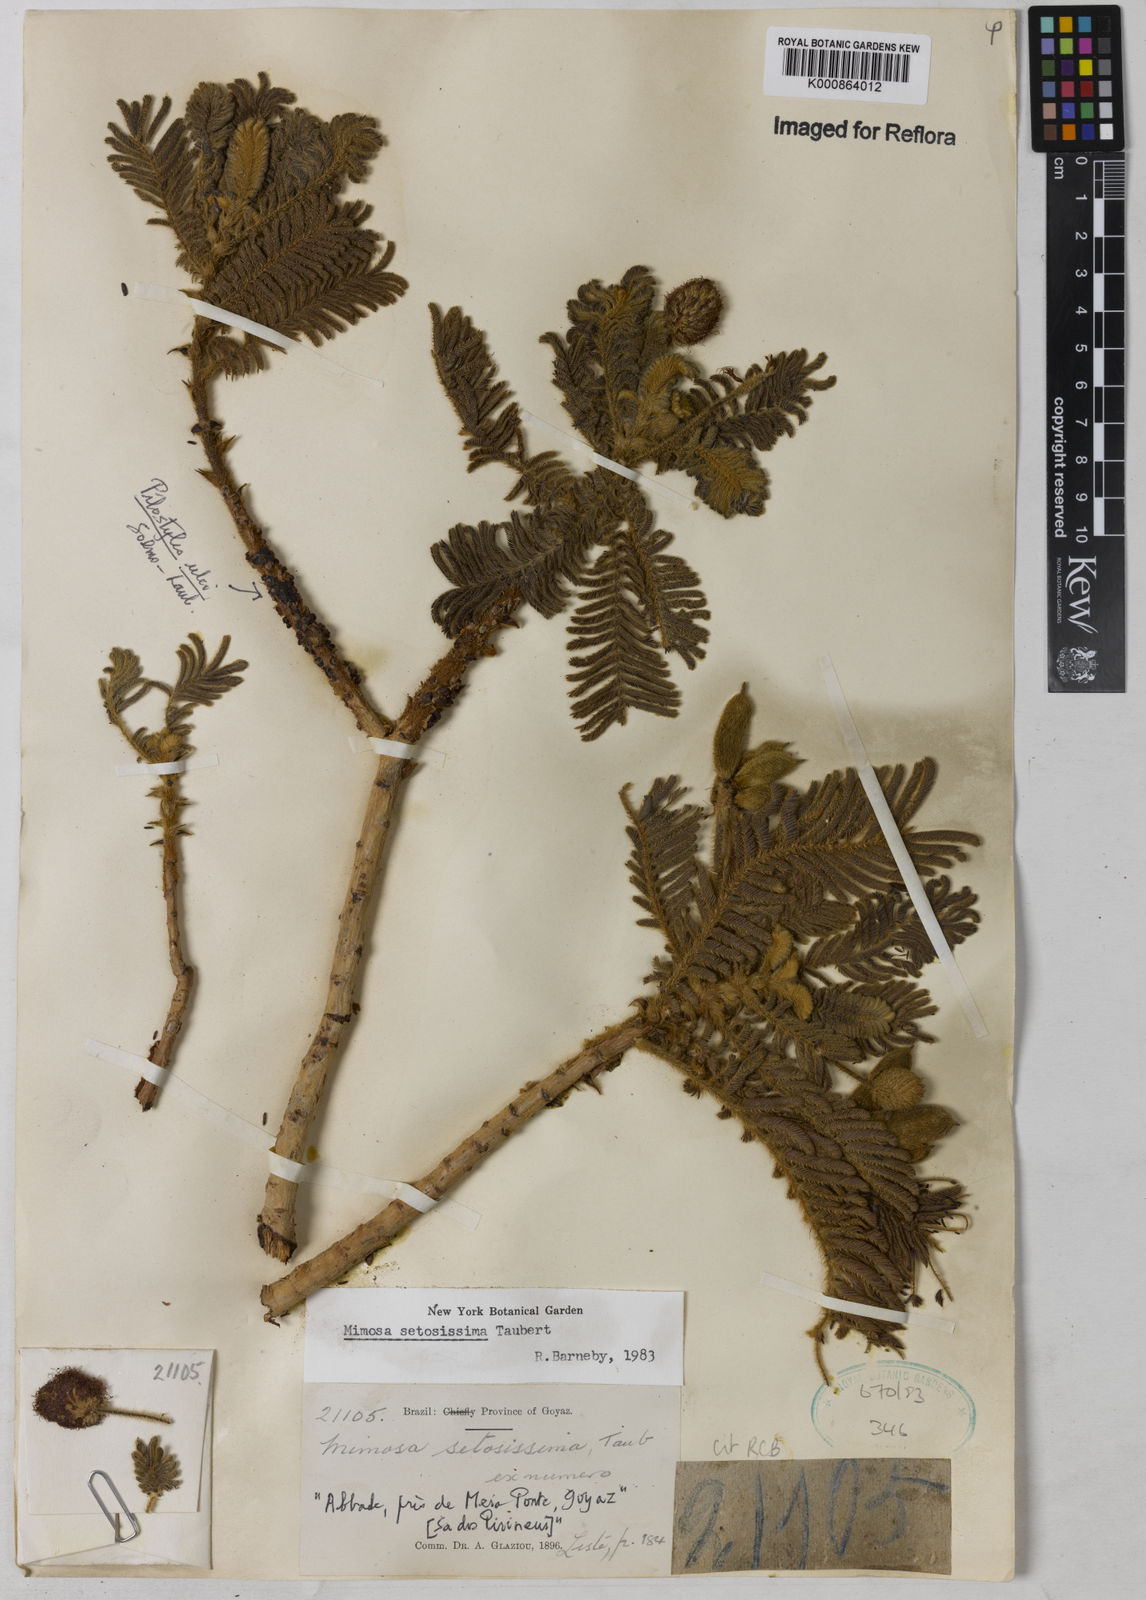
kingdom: Plantae
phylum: Tracheophyta
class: Magnoliopsida
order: Fabales
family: Fabaceae
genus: Mimosa
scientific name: Mimosa setosissima
